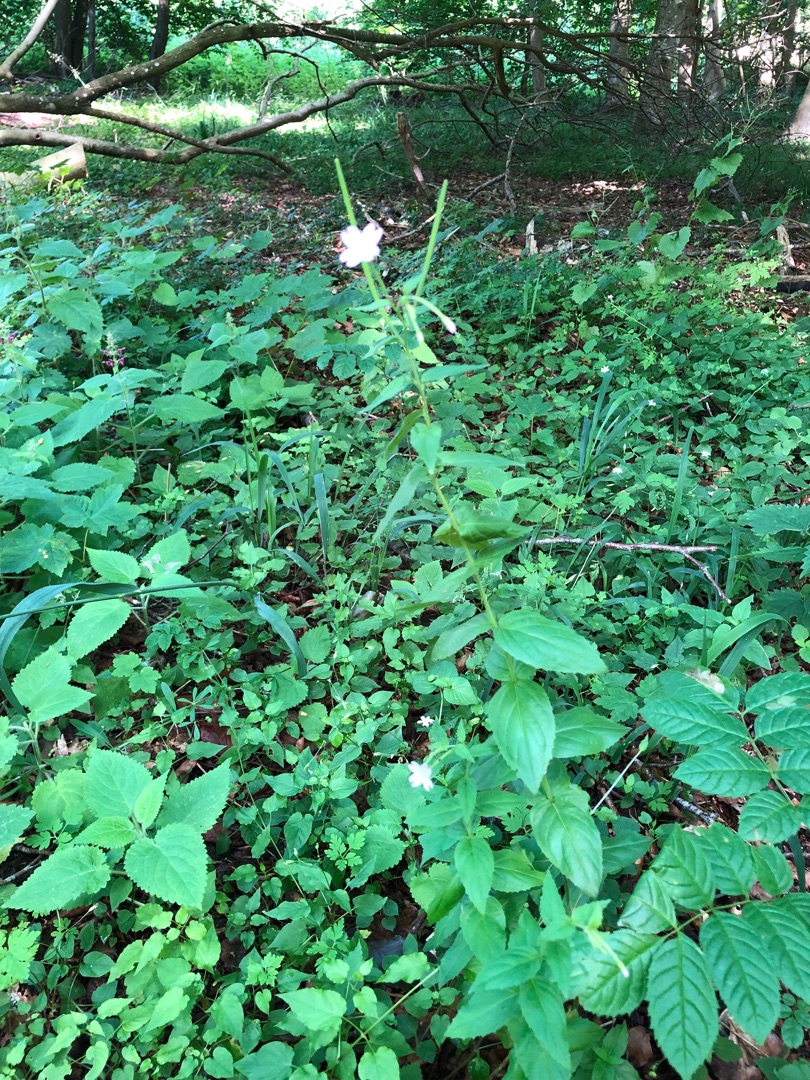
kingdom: Plantae
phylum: Tracheophyta
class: Magnoliopsida
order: Myrtales
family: Onagraceae
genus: Epilobium
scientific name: Epilobium montanum
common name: Glat dueurt
